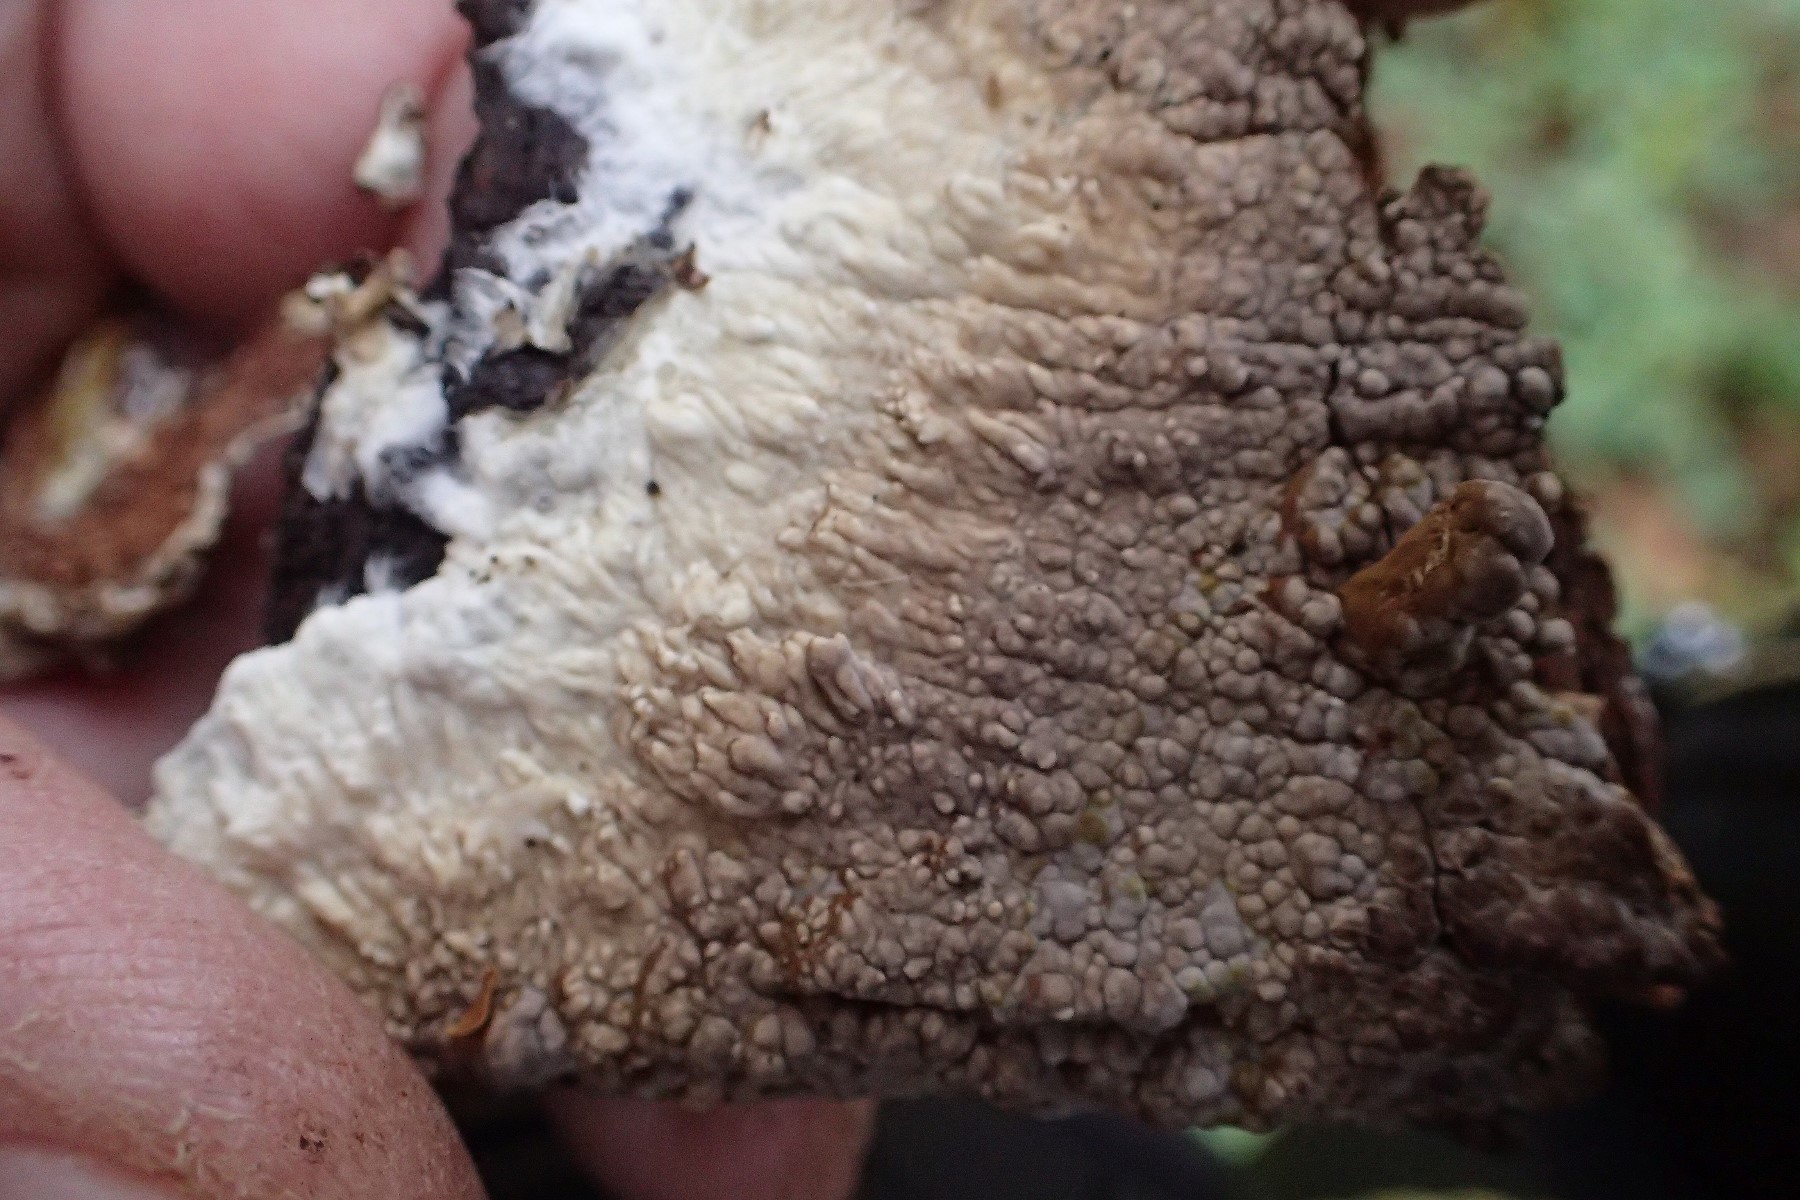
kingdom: Fungi
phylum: Basidiomycota
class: Agaricomycetes
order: Boletales
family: Coniophoraceae
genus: Coniophora
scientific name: Coniophora puteana
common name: gul tømmersvamp
